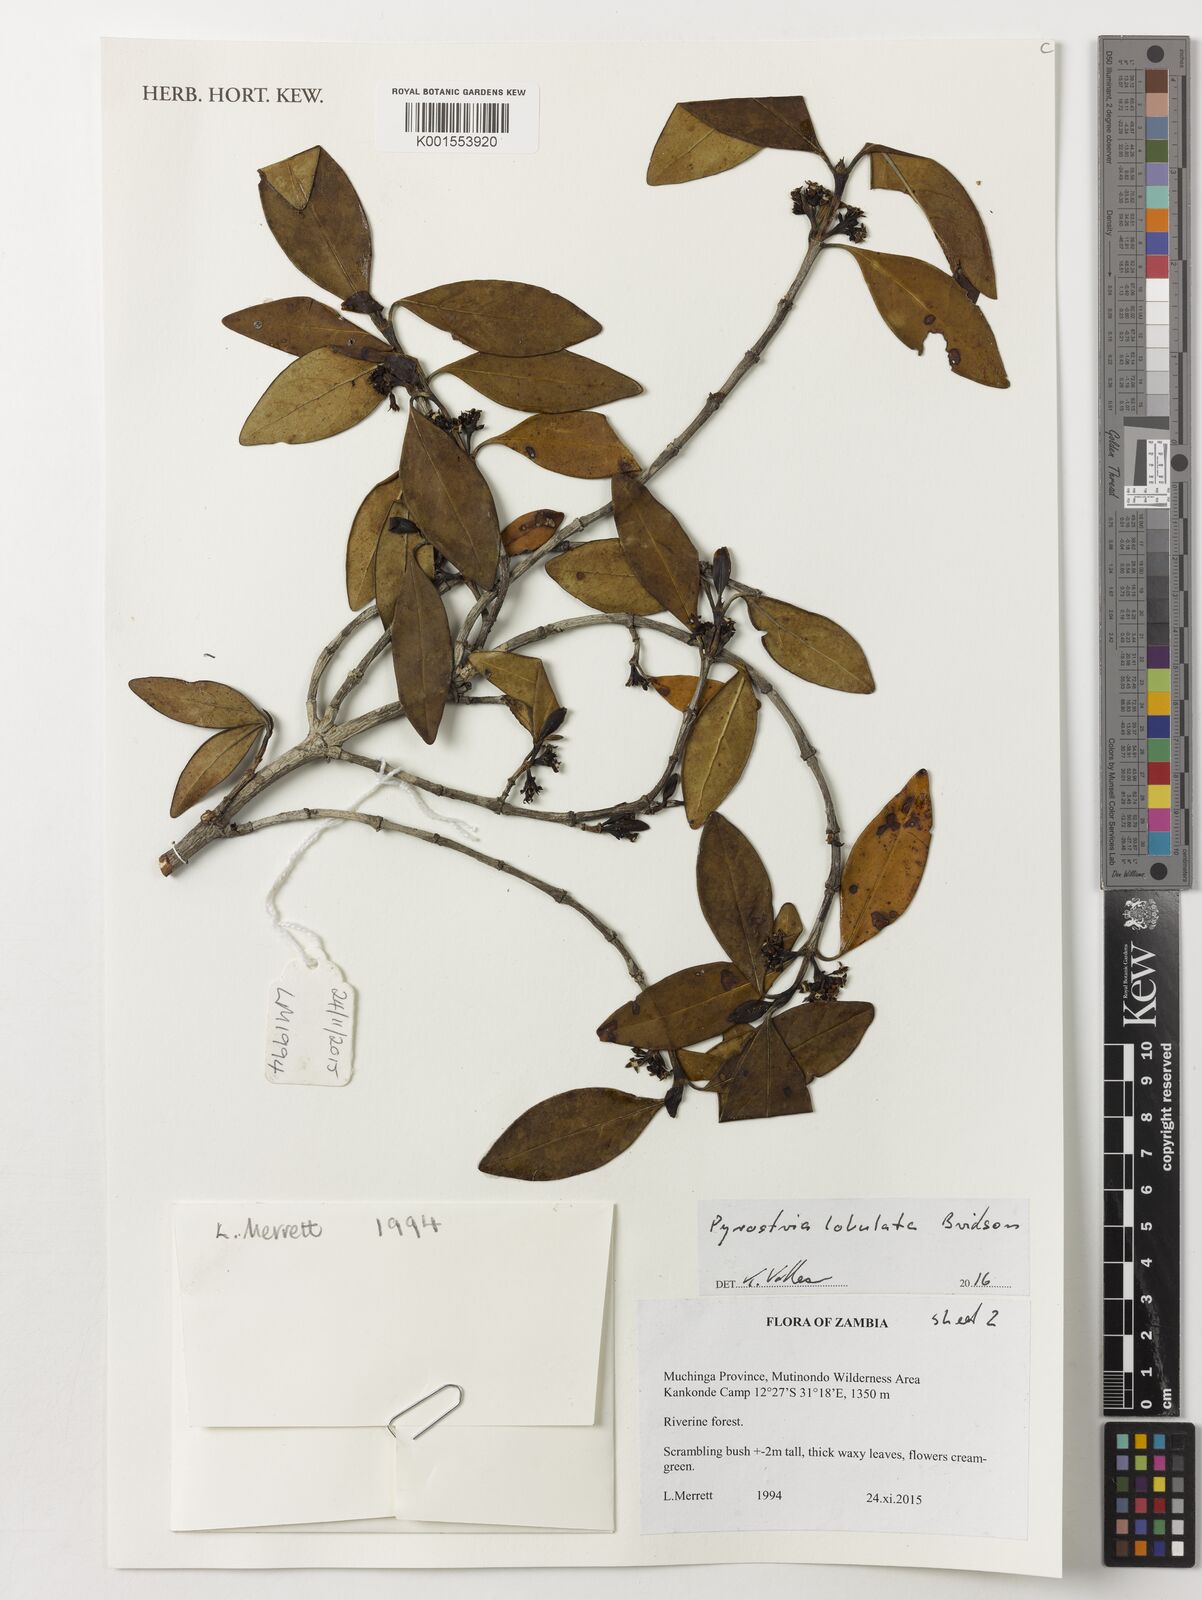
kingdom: Plantae
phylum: Tracheophyta
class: Magnoliopsida
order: Gentianales
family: Rubiaceae
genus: Pyrostria
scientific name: Pyrostria lobulata
